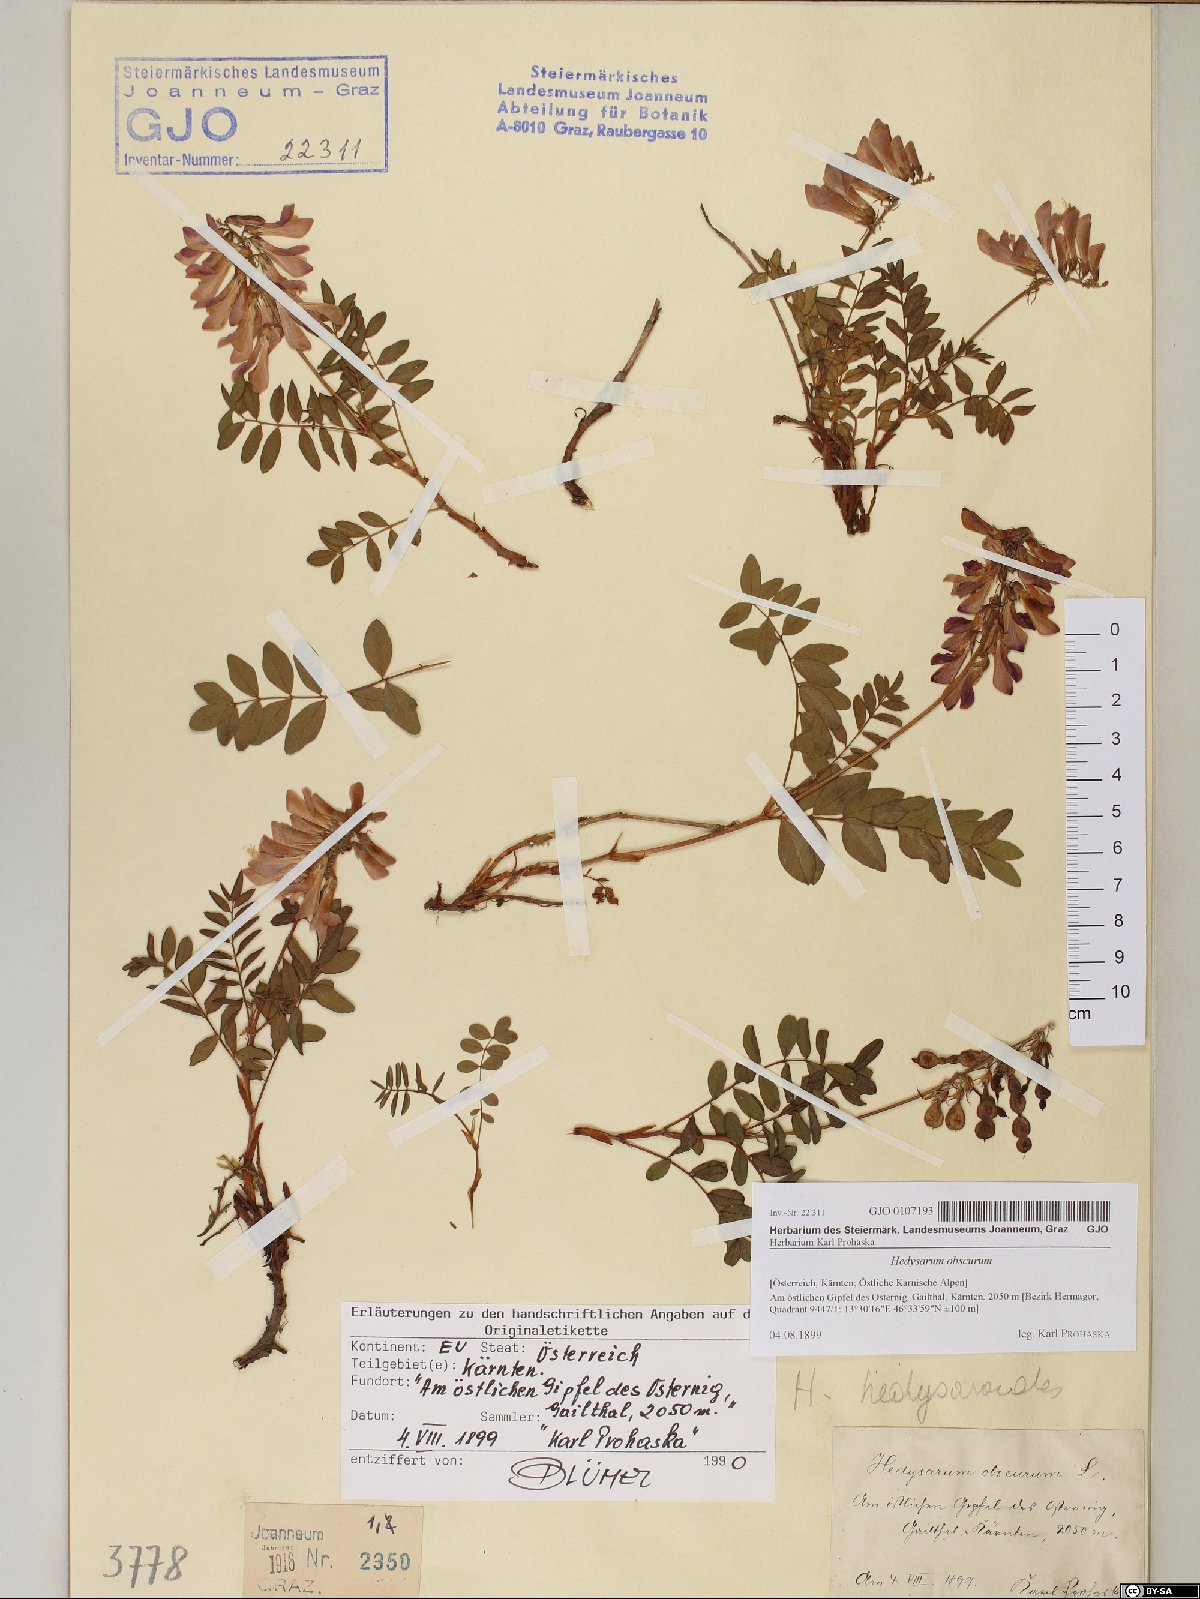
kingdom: Plantae
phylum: Tracheophyta
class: Magnoliopsida
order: Fabales
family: Fabaceae
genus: Hedysarum
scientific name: Hedysarum hedysaroides
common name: Alpine french-honeysuckle
